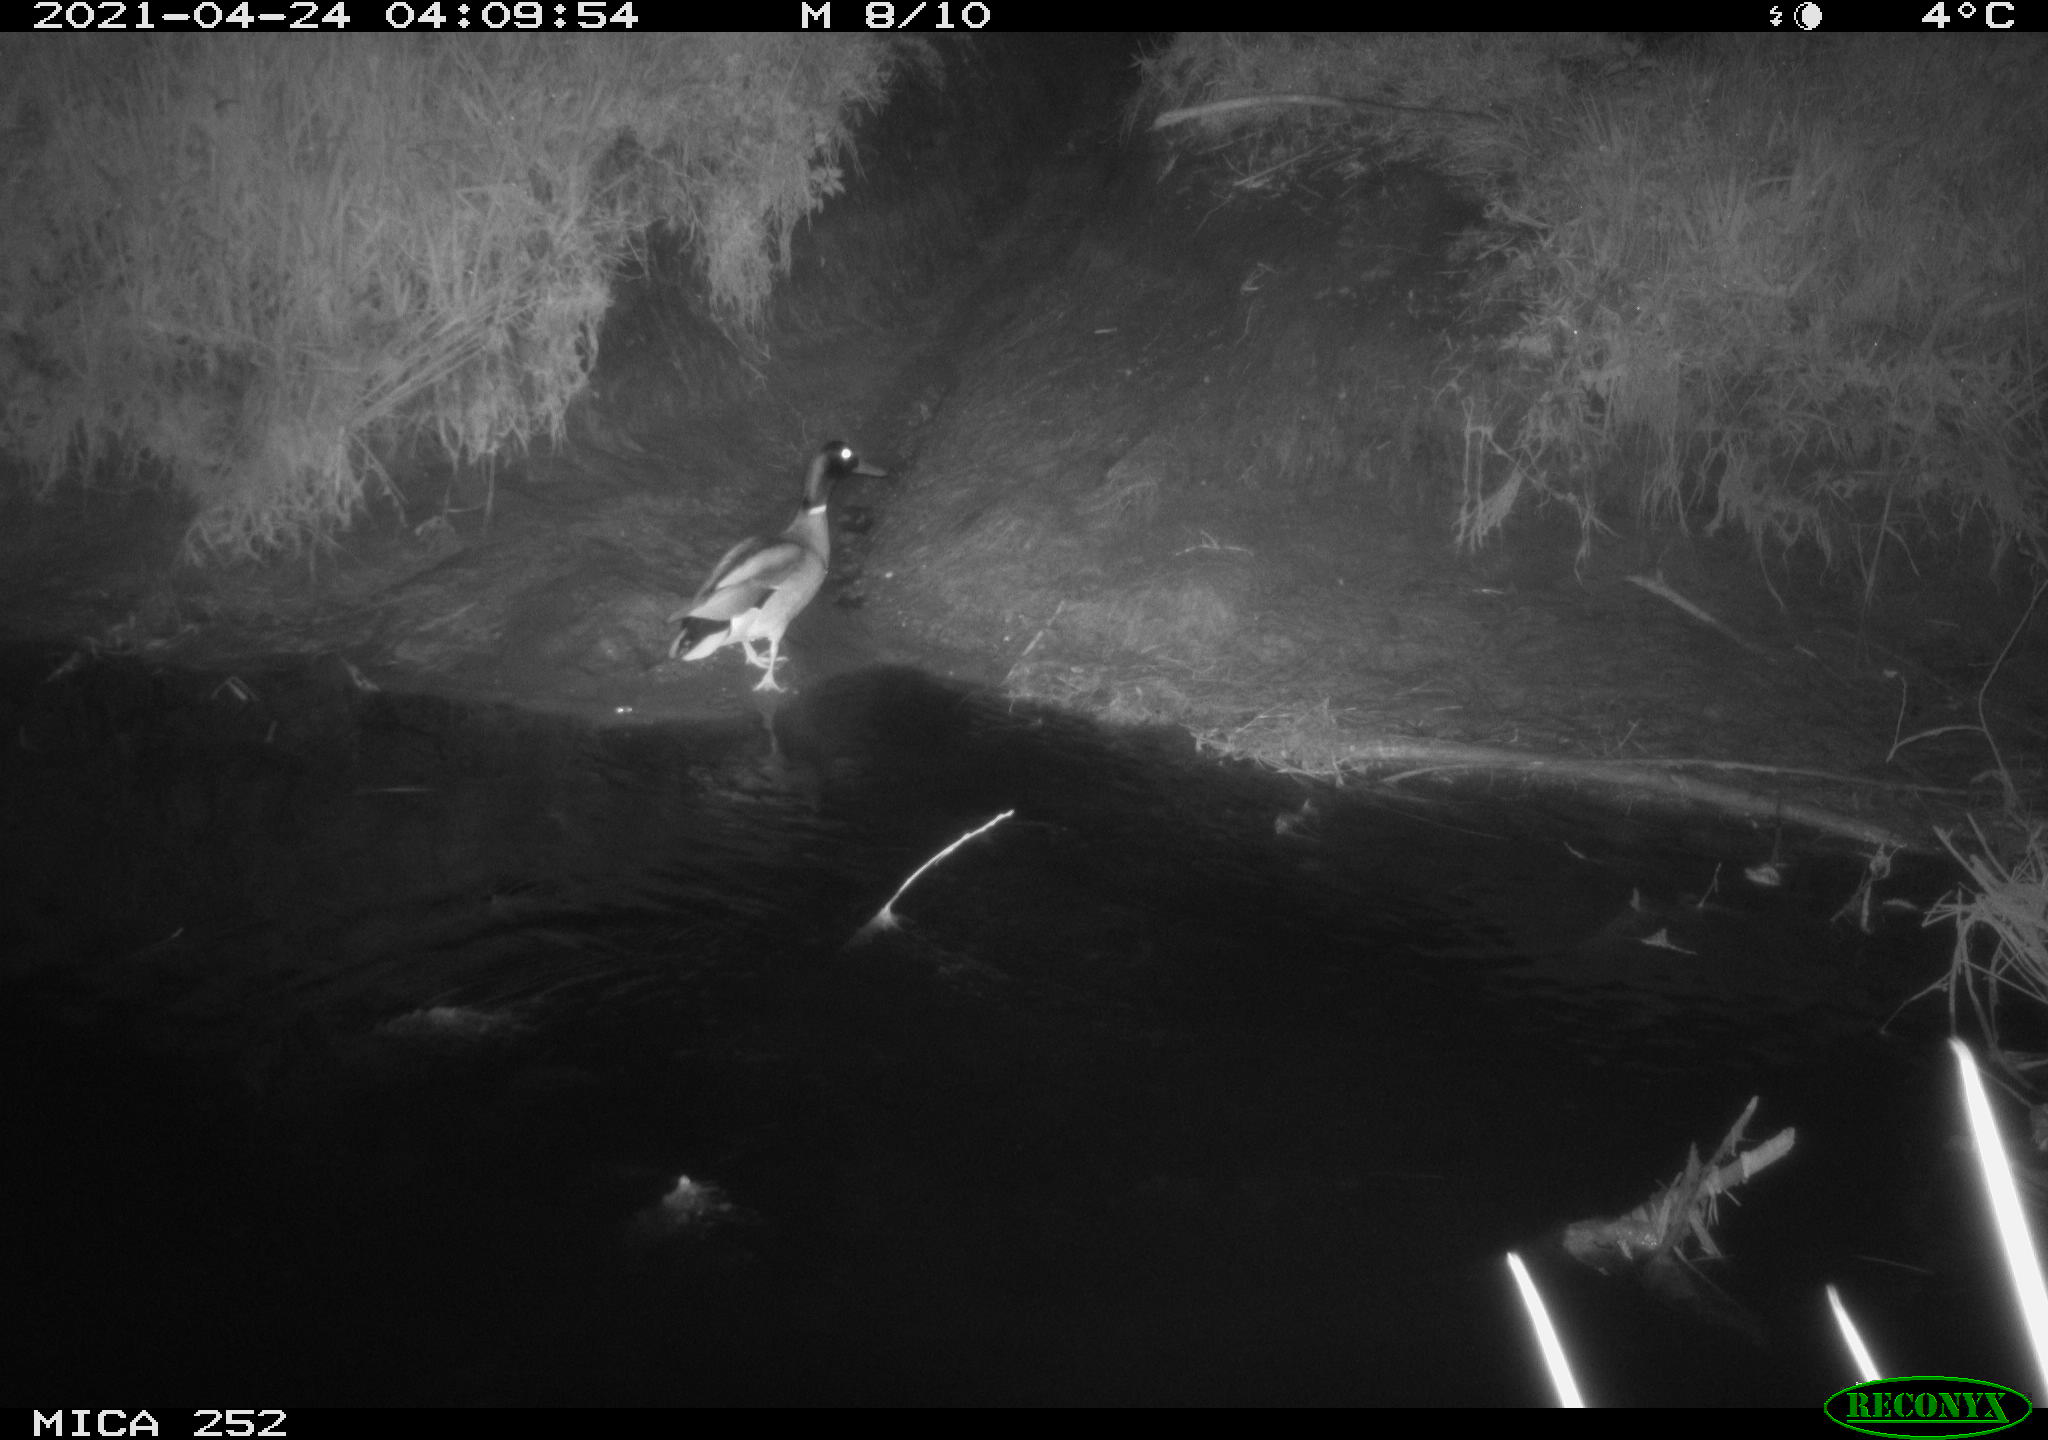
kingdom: Animalia
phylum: Chordata
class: Aves
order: Anseriformes
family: Anatidae
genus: Anas
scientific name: Anas platyrhynchos
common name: Mallard
